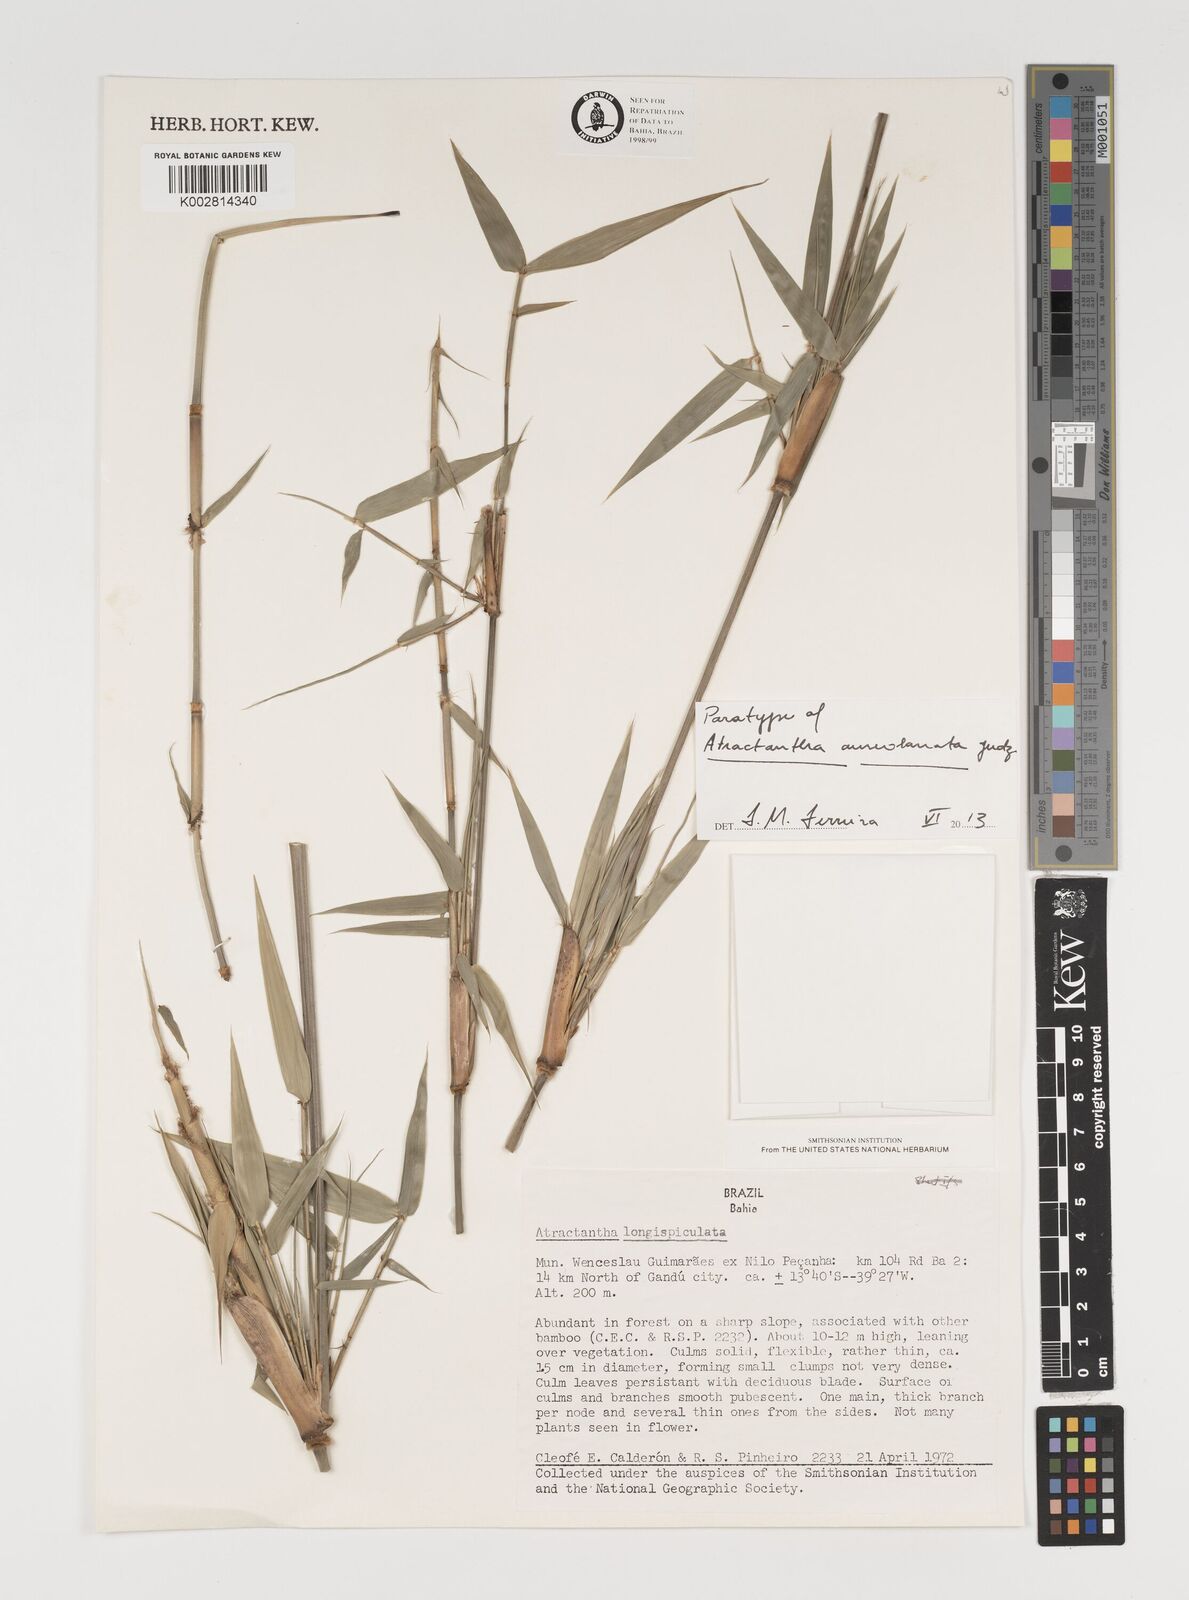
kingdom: Plantae
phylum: Tracheophyta
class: Liliopsida
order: Poales
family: Poaceae
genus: Atractantha
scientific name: Atractantha aureolanata
